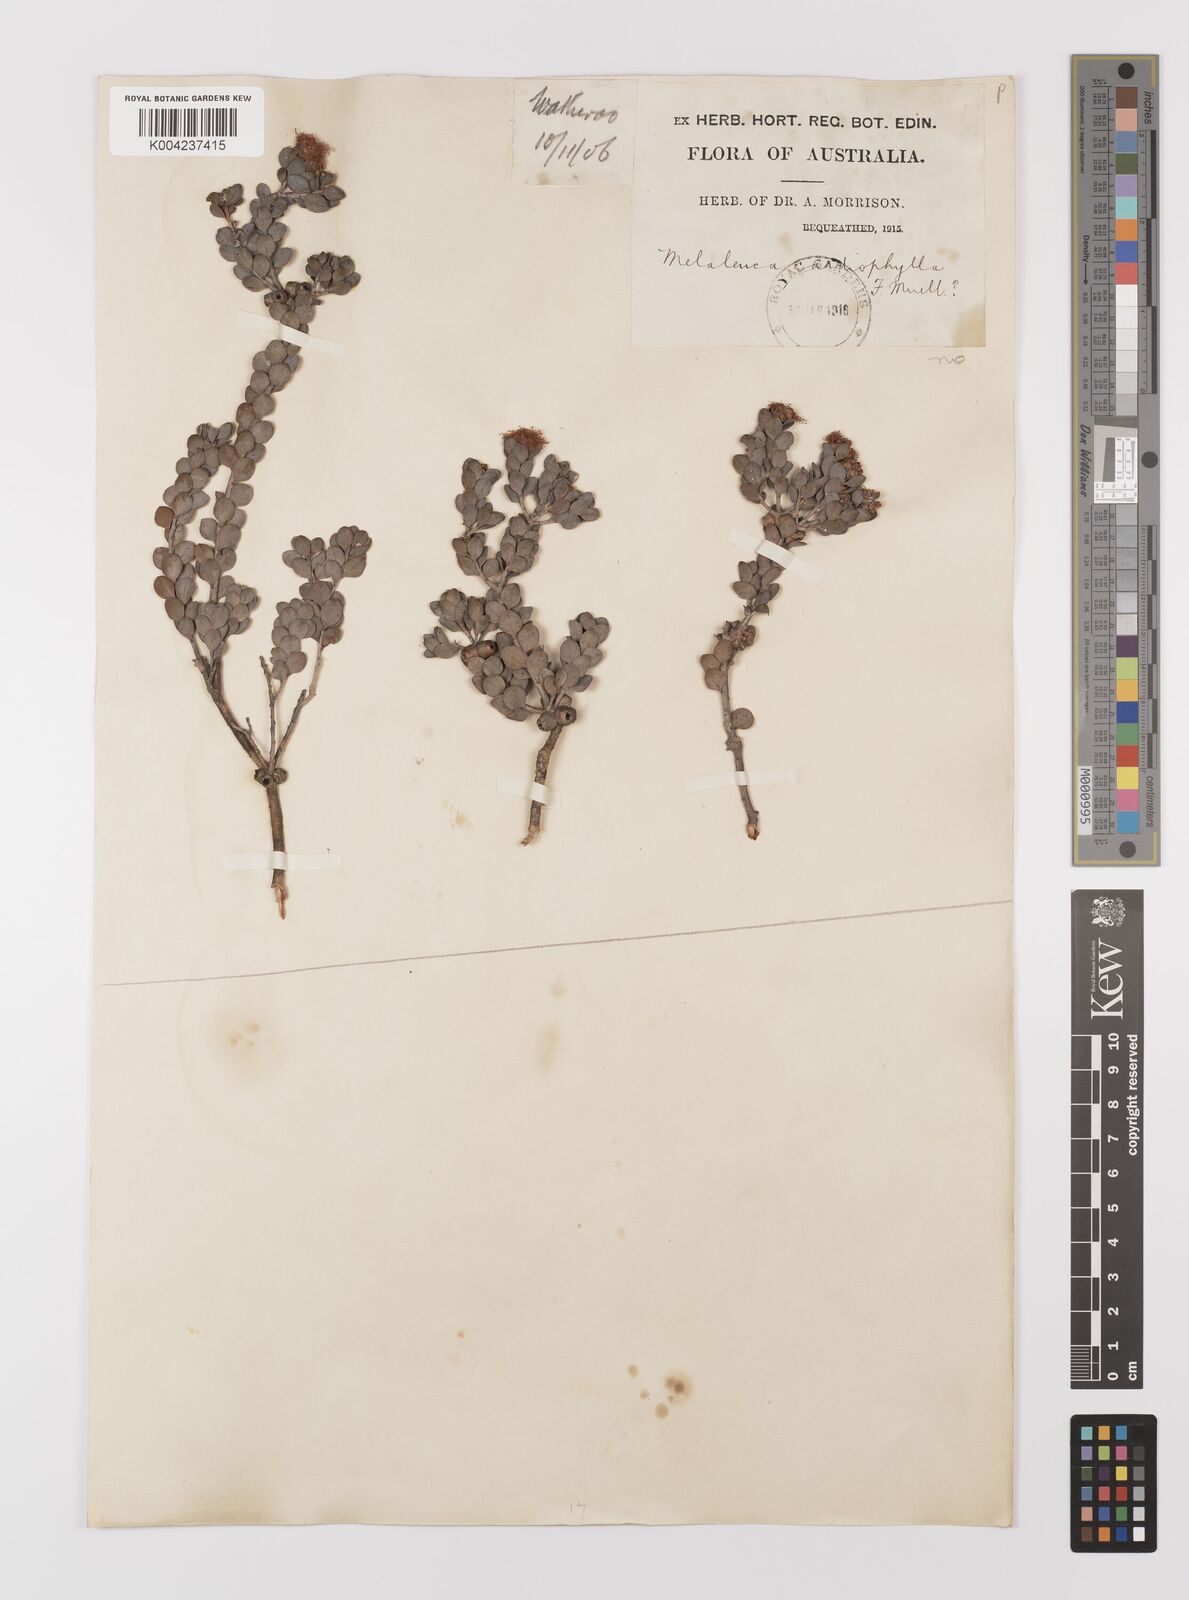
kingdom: Plantae
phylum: Tracheophyta
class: Magnoliopsida
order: Myrtales
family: Myrtaceae
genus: Melaleuca
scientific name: Melaleuca
